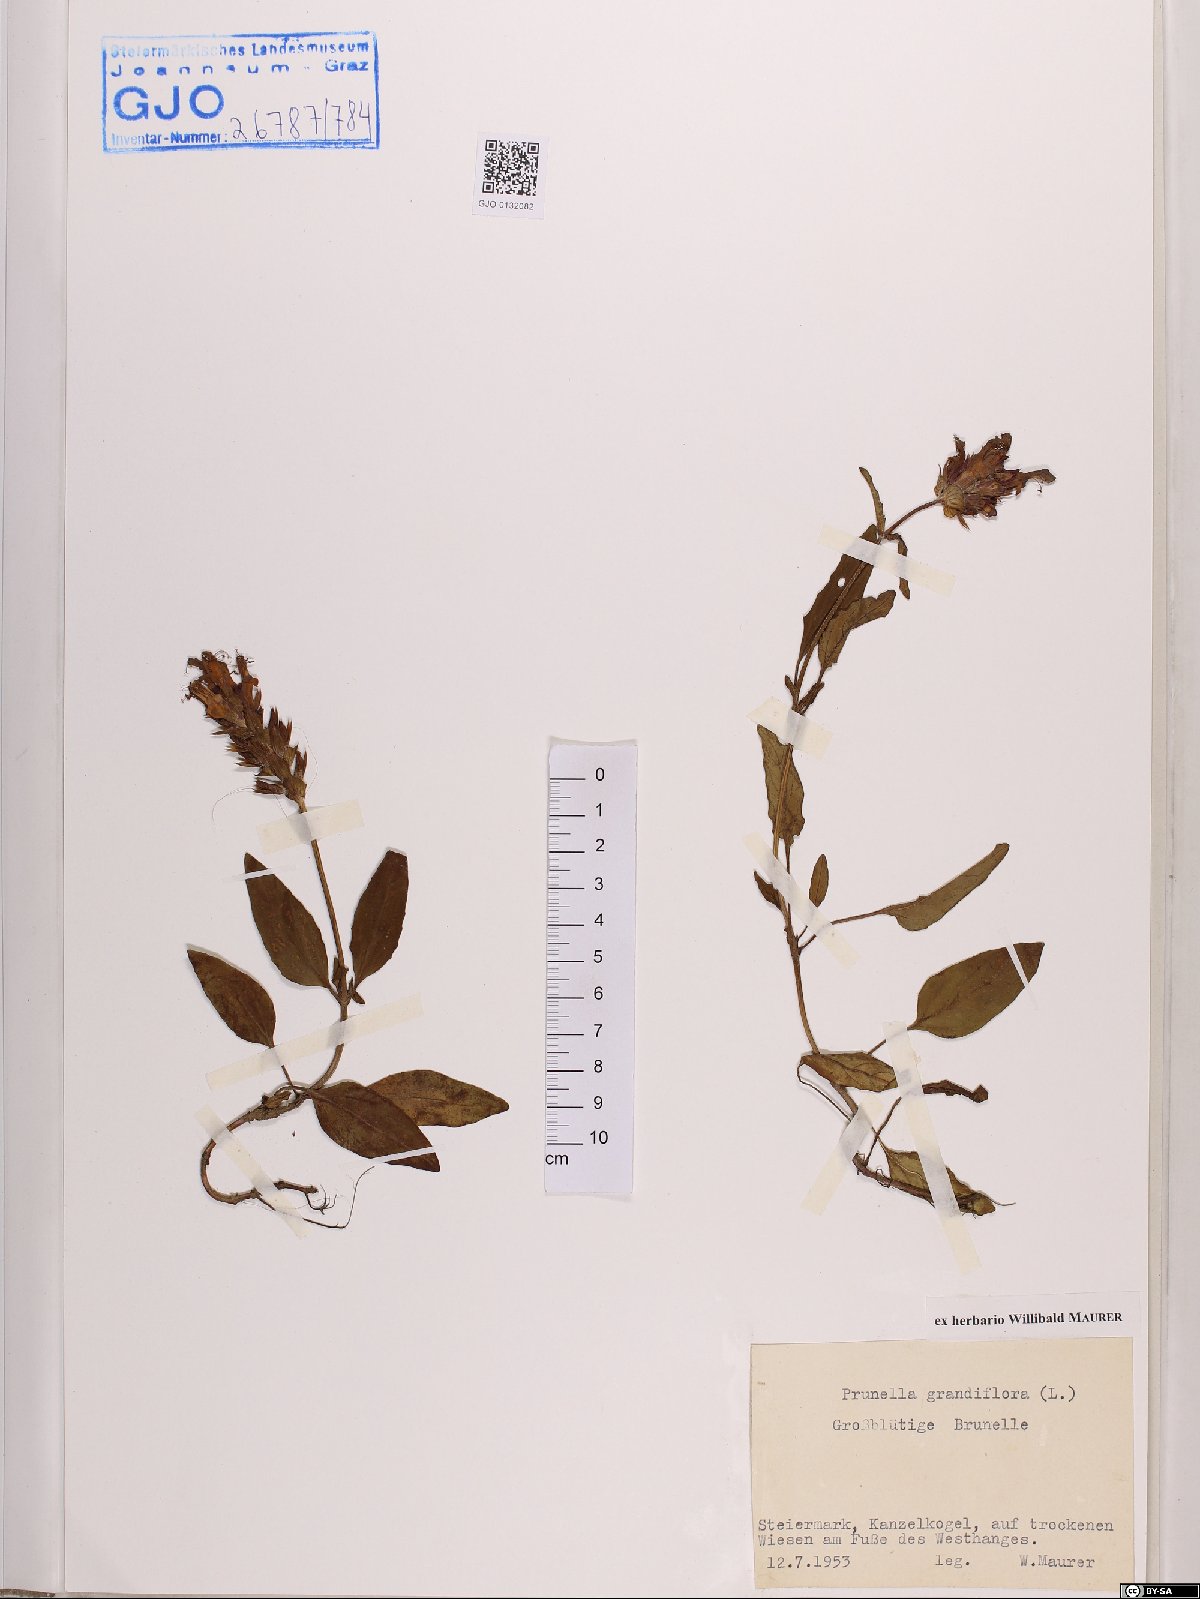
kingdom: Plantae
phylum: Tracheophyta
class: Magnoliopsida
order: Lamiales
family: Lamiaceae
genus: Prunella
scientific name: Prunella grandiflora
